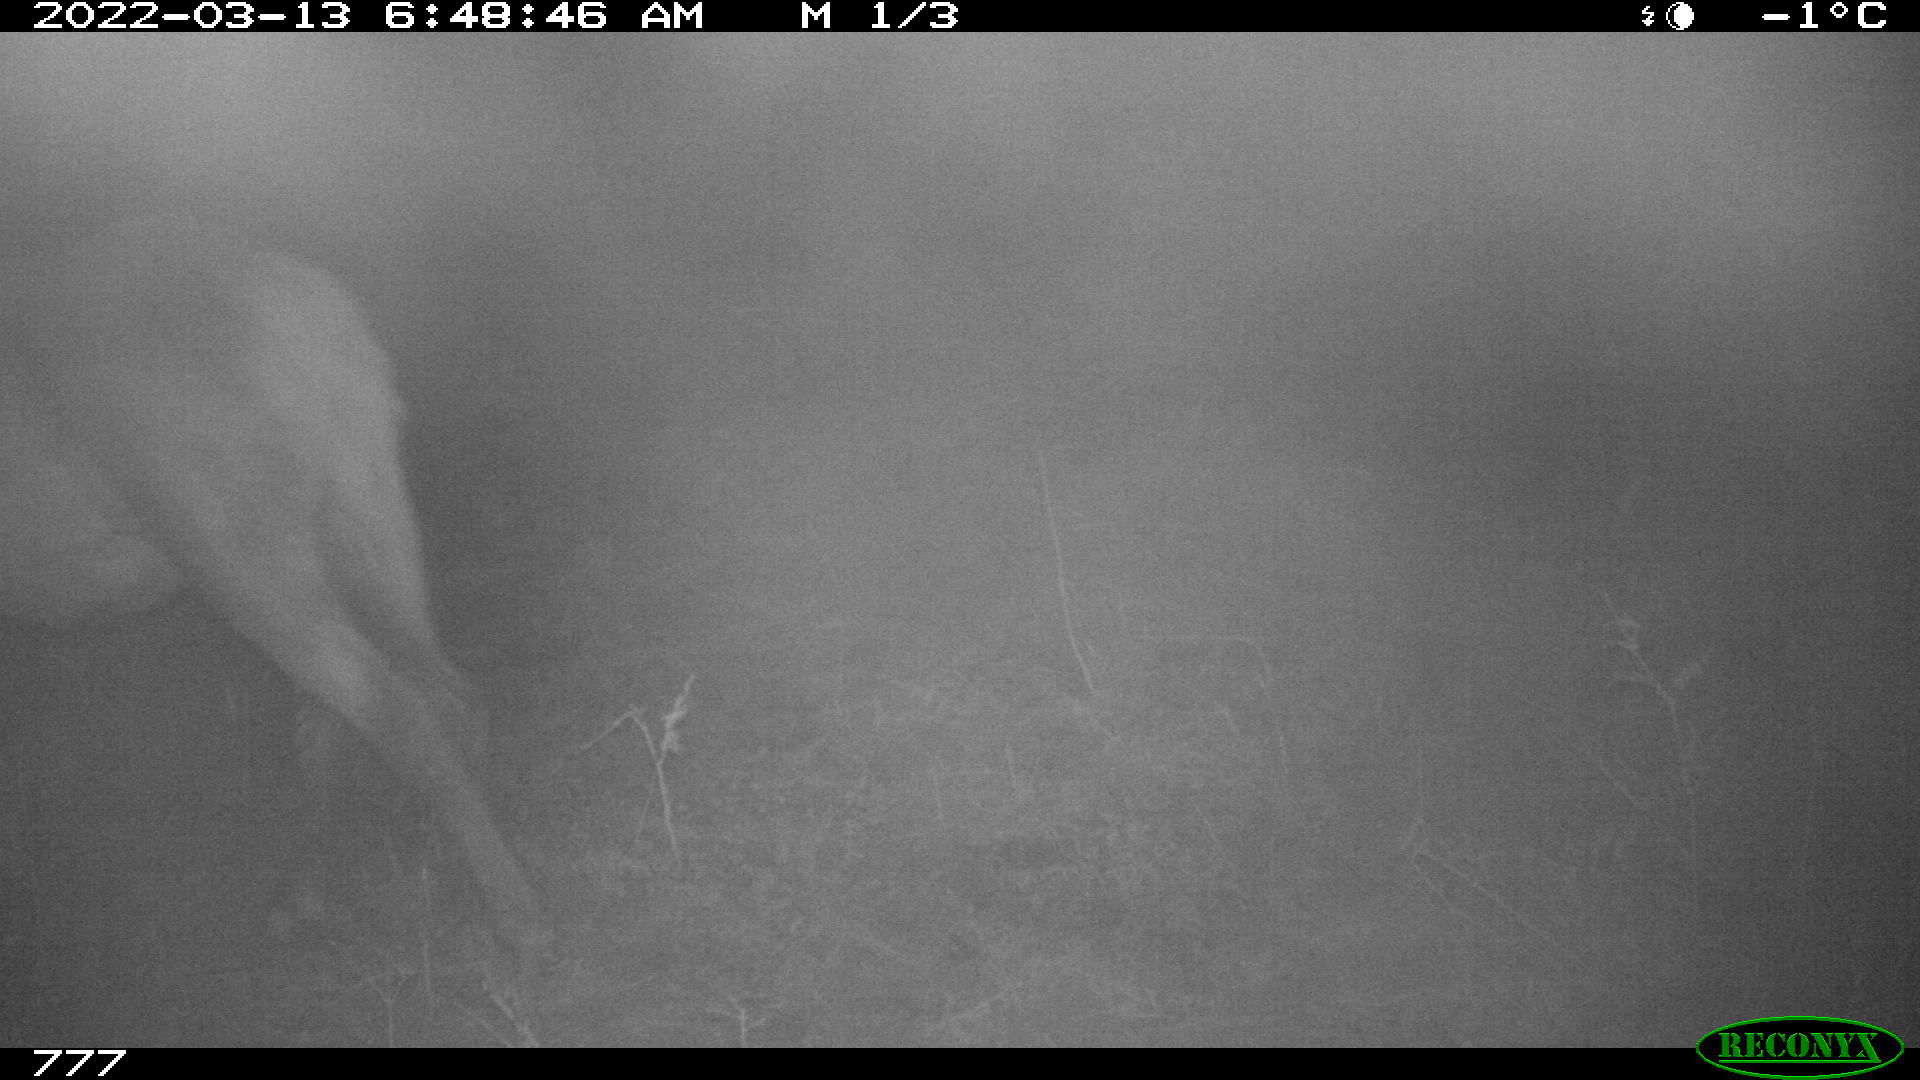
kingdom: Animalia
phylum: Chordata
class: Mammalia
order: Perissodactyla
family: Equidae
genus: Equus
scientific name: Equus caballus
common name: Horse
